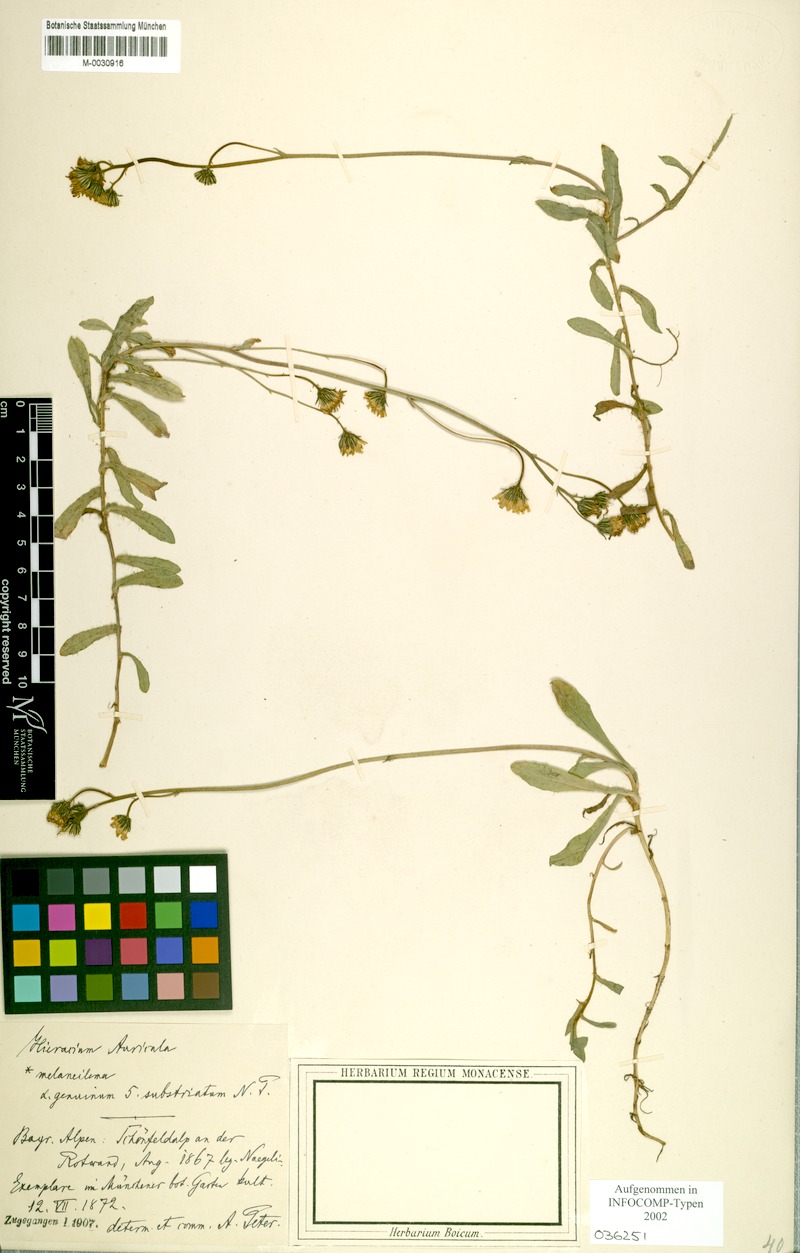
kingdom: Plantae
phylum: Tracheophyta
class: Magnoliopsida
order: Asterales
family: Asteraceae
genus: Pilosella
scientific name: Pilosella lactucella
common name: Glaucous fox-and-cubs
